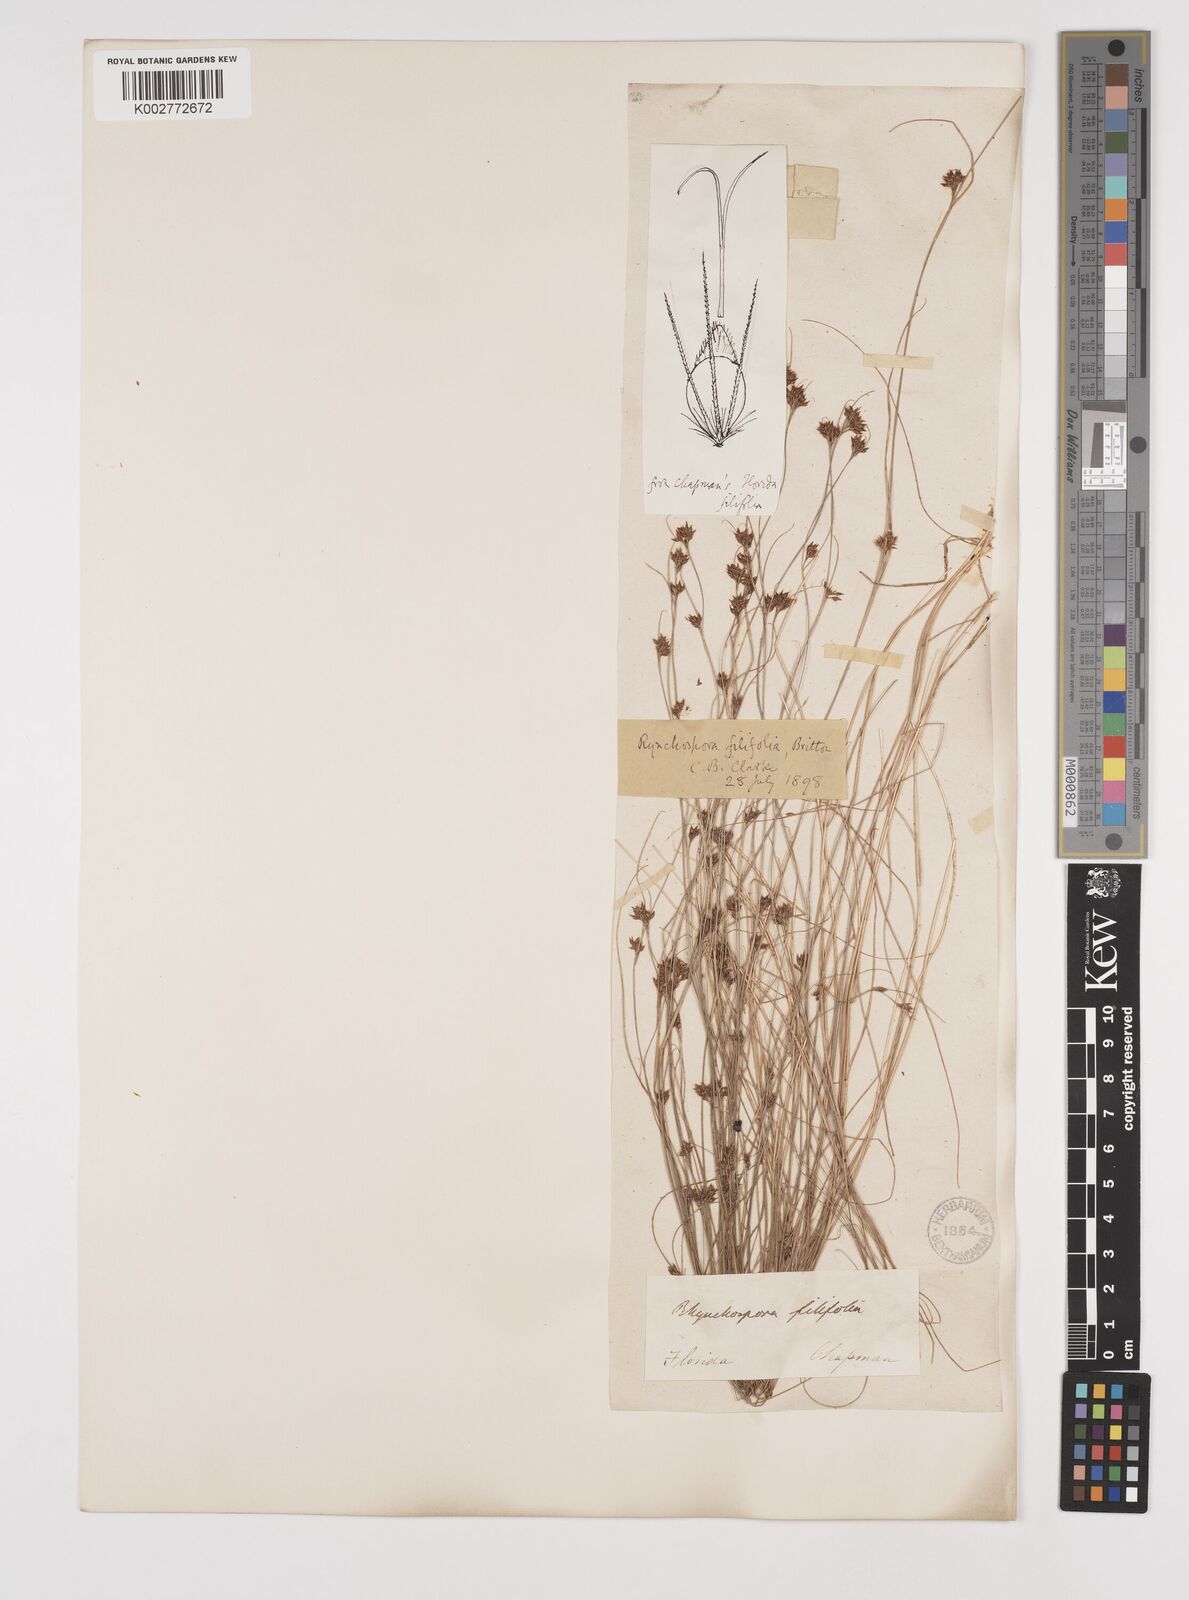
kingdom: Plantae
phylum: Tracheophyta
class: Liliopsida
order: Poales
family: Cyperaceae
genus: Rhynchospora
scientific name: Rhynchospora filifolia
